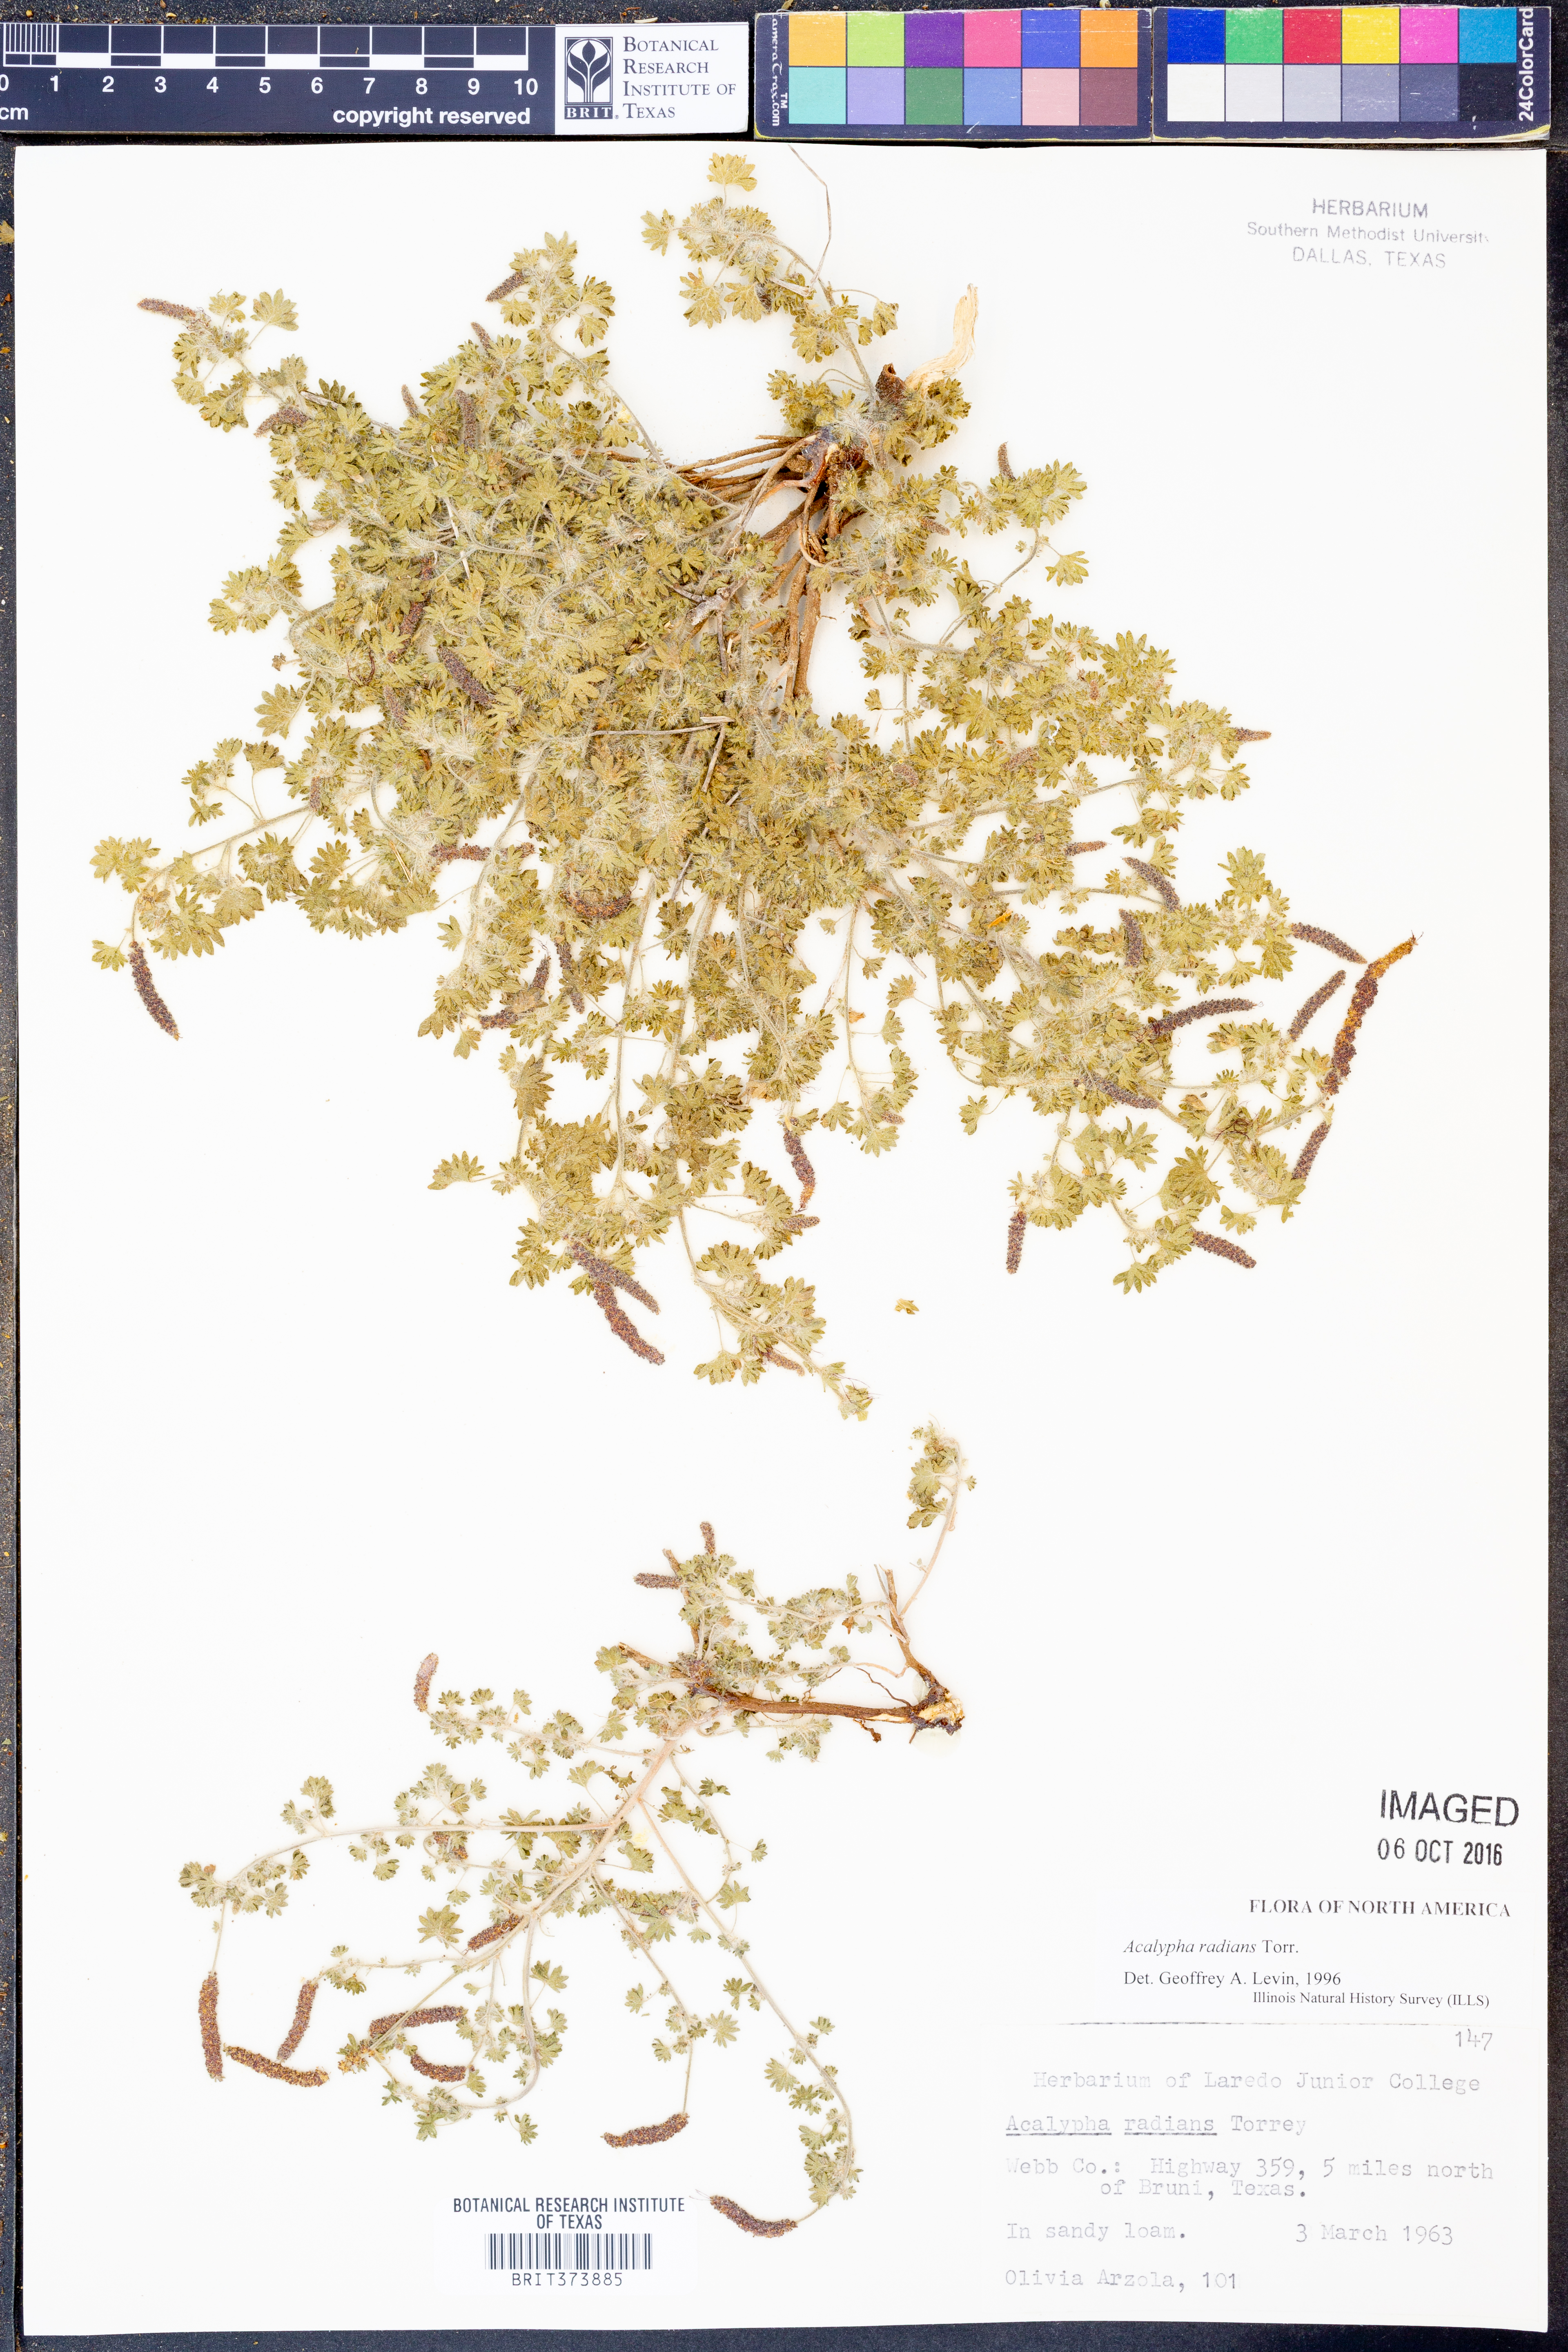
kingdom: Plantae
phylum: Tracheophyta
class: Magnoliopsida
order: Malpighiales
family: Euphorbiaceae
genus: Acalypha
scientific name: Acalypha radians
